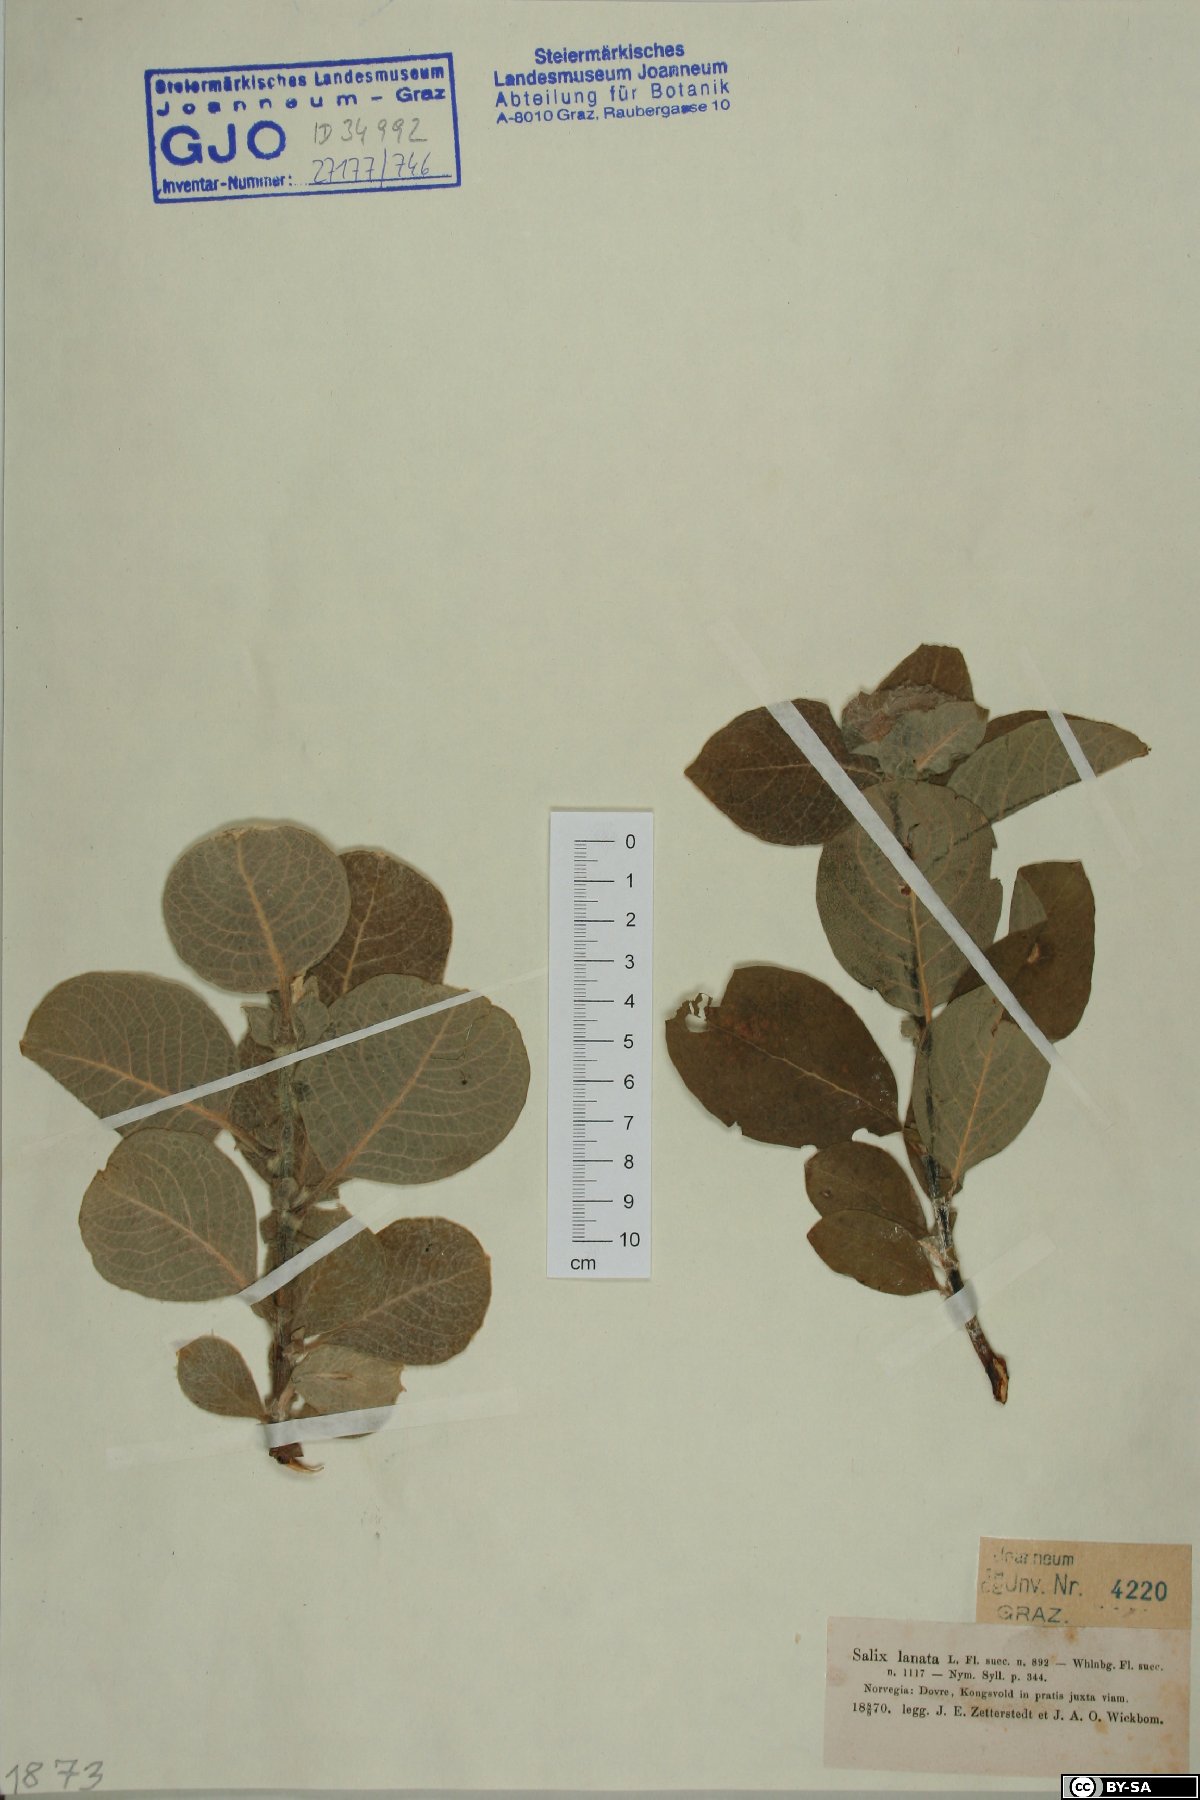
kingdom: Plantae
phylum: Tracheophyta
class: Magnoliopsida
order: Malpighiales
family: Salicaceae
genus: Salix
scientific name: Salix lanata
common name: Woolly willow
